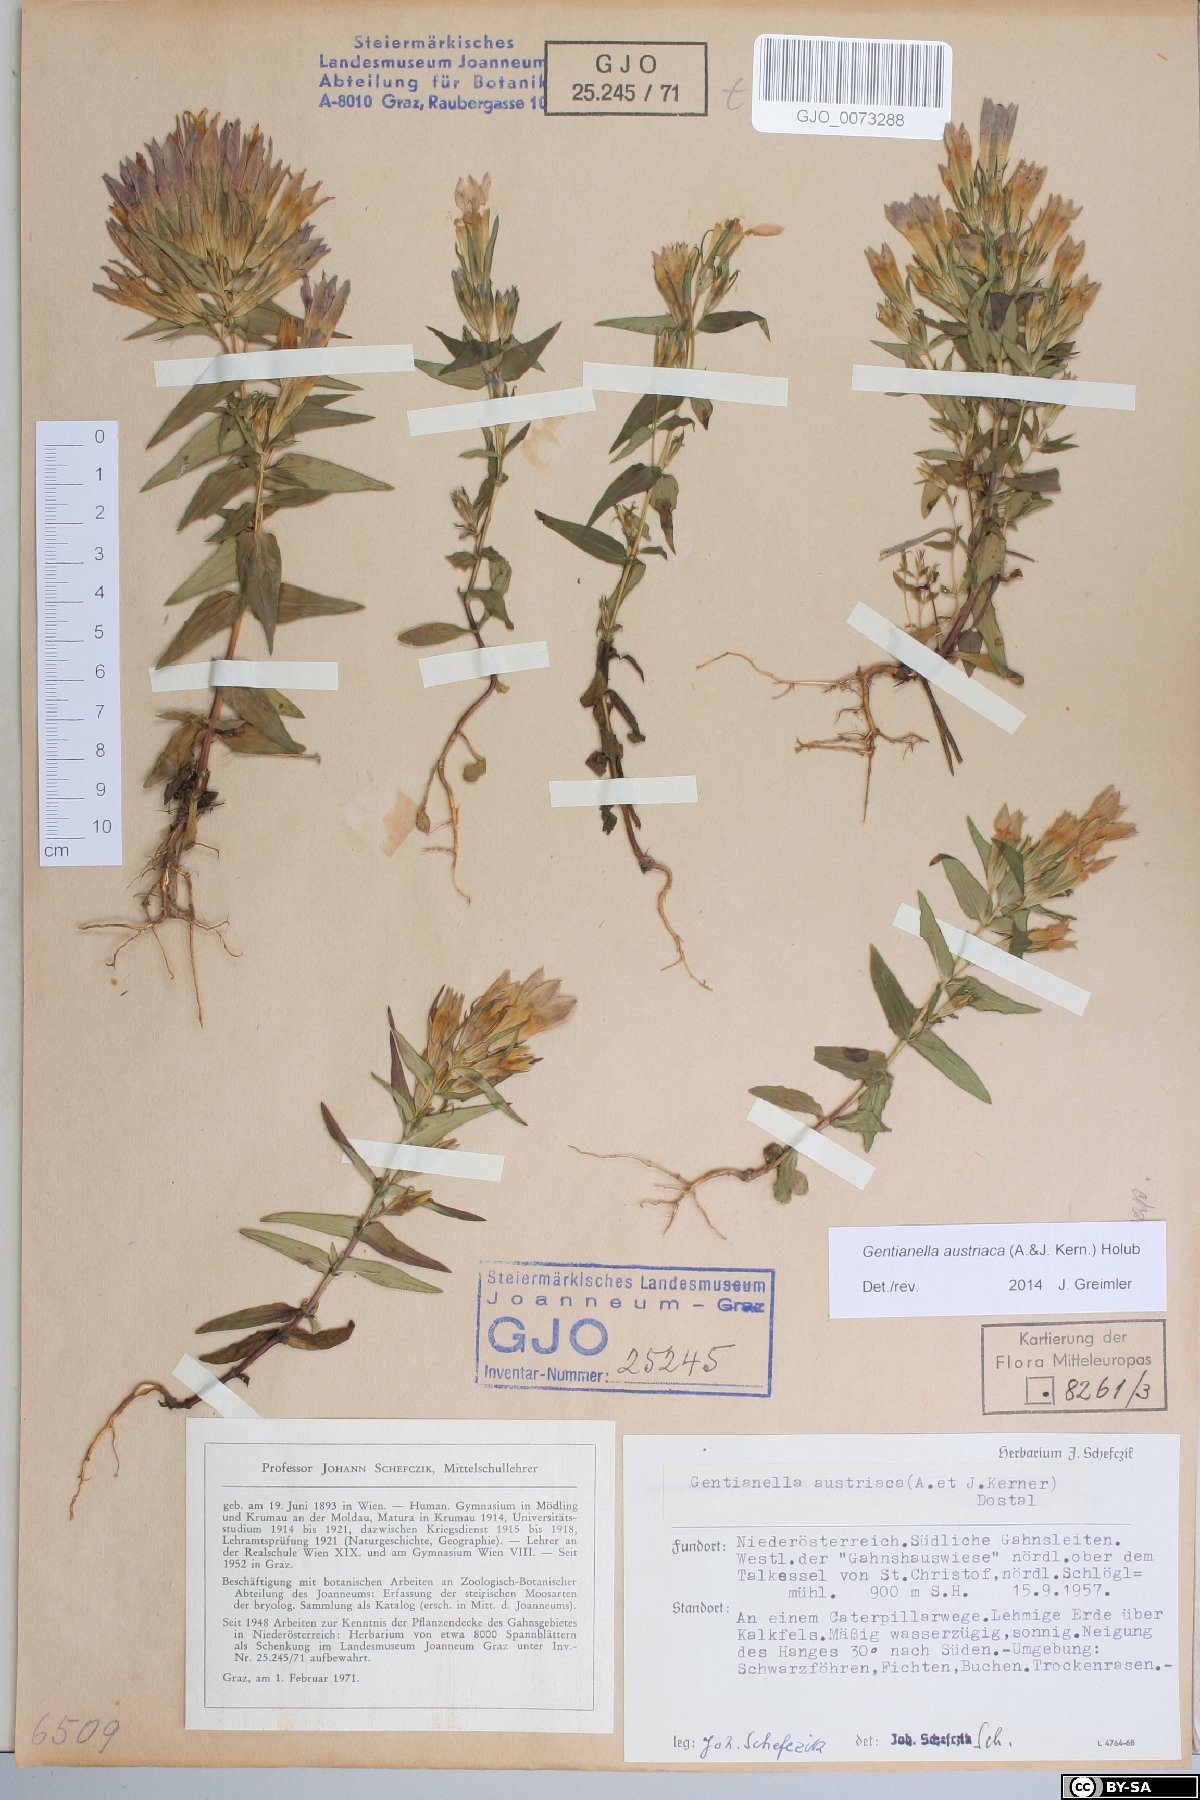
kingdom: Plantae
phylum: Tracheophyta
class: Magnoliopsida
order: Gentianales
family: Gentianaceae
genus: Gentianella
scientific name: Gentianella austriaca
